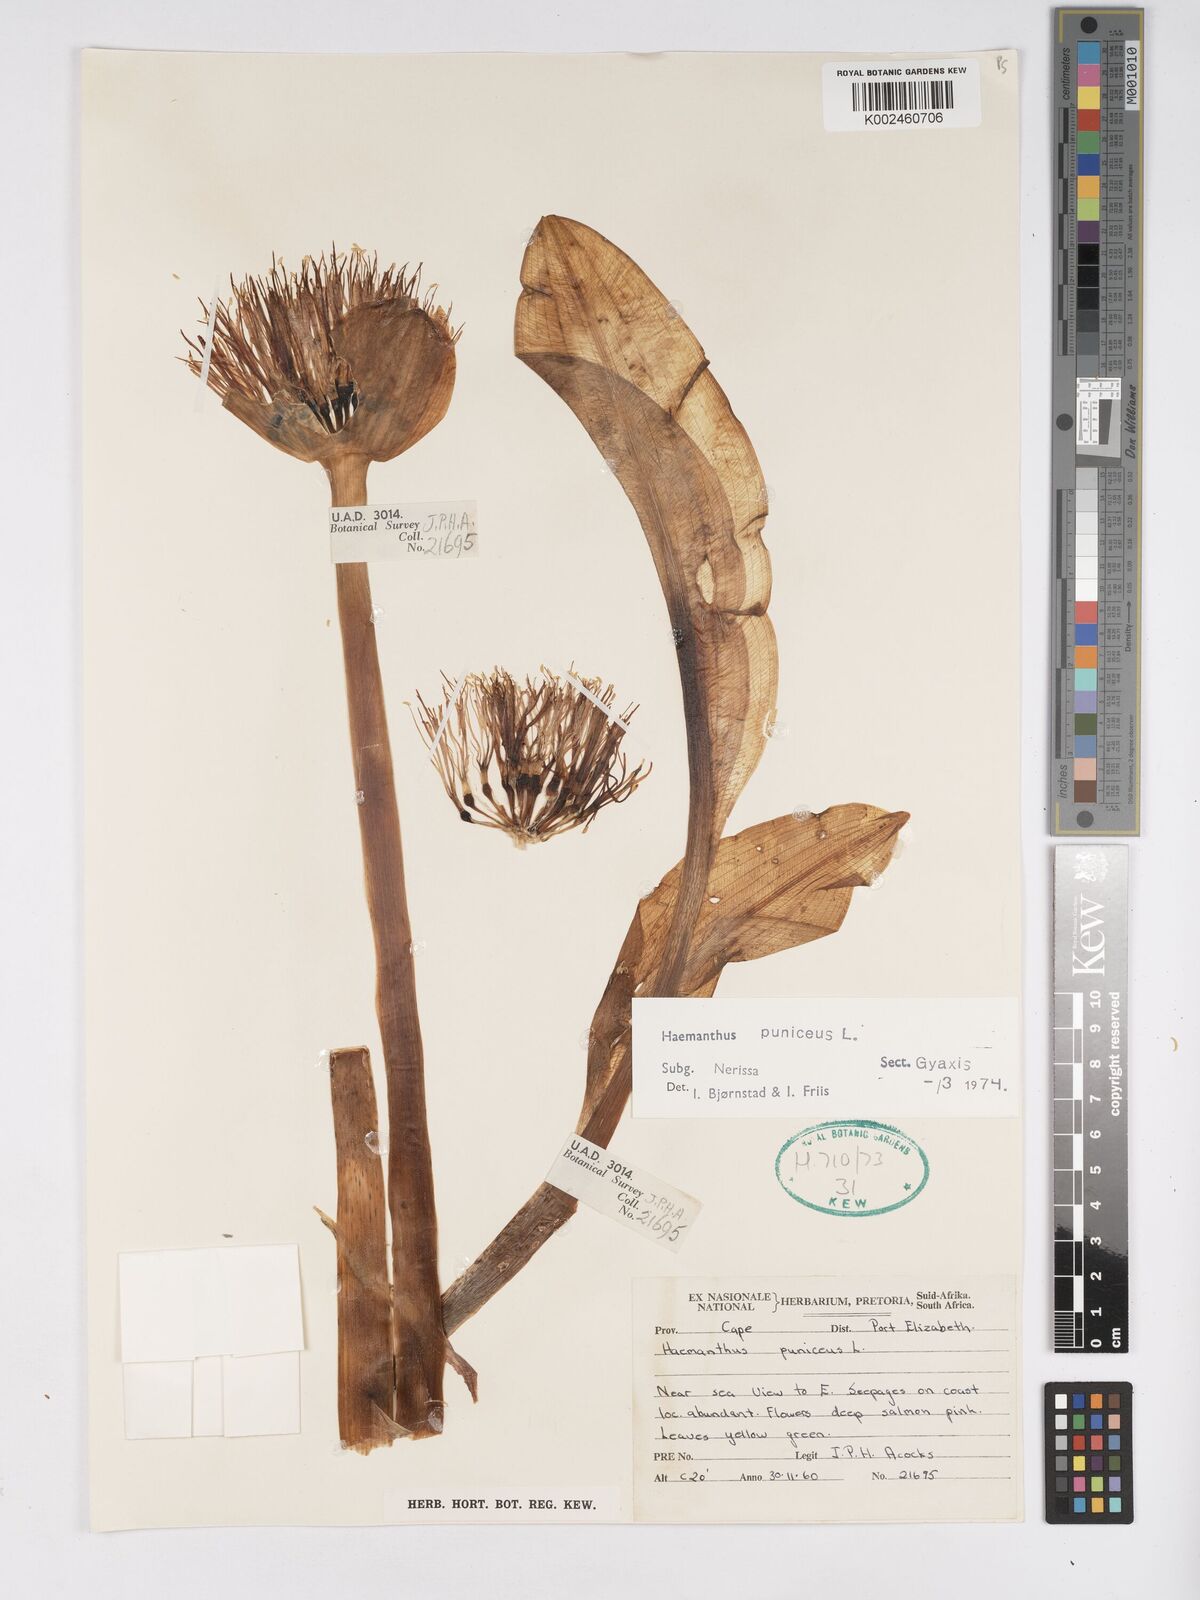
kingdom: Plantae
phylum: Tracheophyta
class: Liliopsida
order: Asparagales
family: Amaryllidaceae
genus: Scadoxus
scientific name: Scadoxus puniceus
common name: Royal-paintbrush
